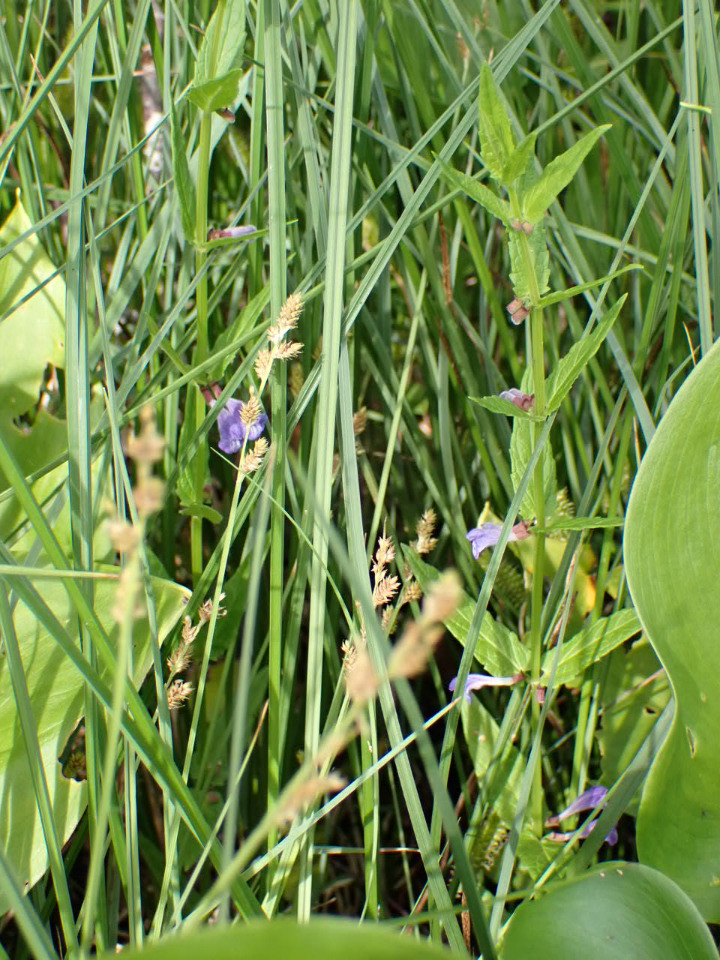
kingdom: Plantae
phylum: Tracheophyta
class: Magnoliopsida
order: Lamiales
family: Lamiaceae
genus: Scutellaria
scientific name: Scutellaria galericulata
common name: Almindelig skjolddrager
